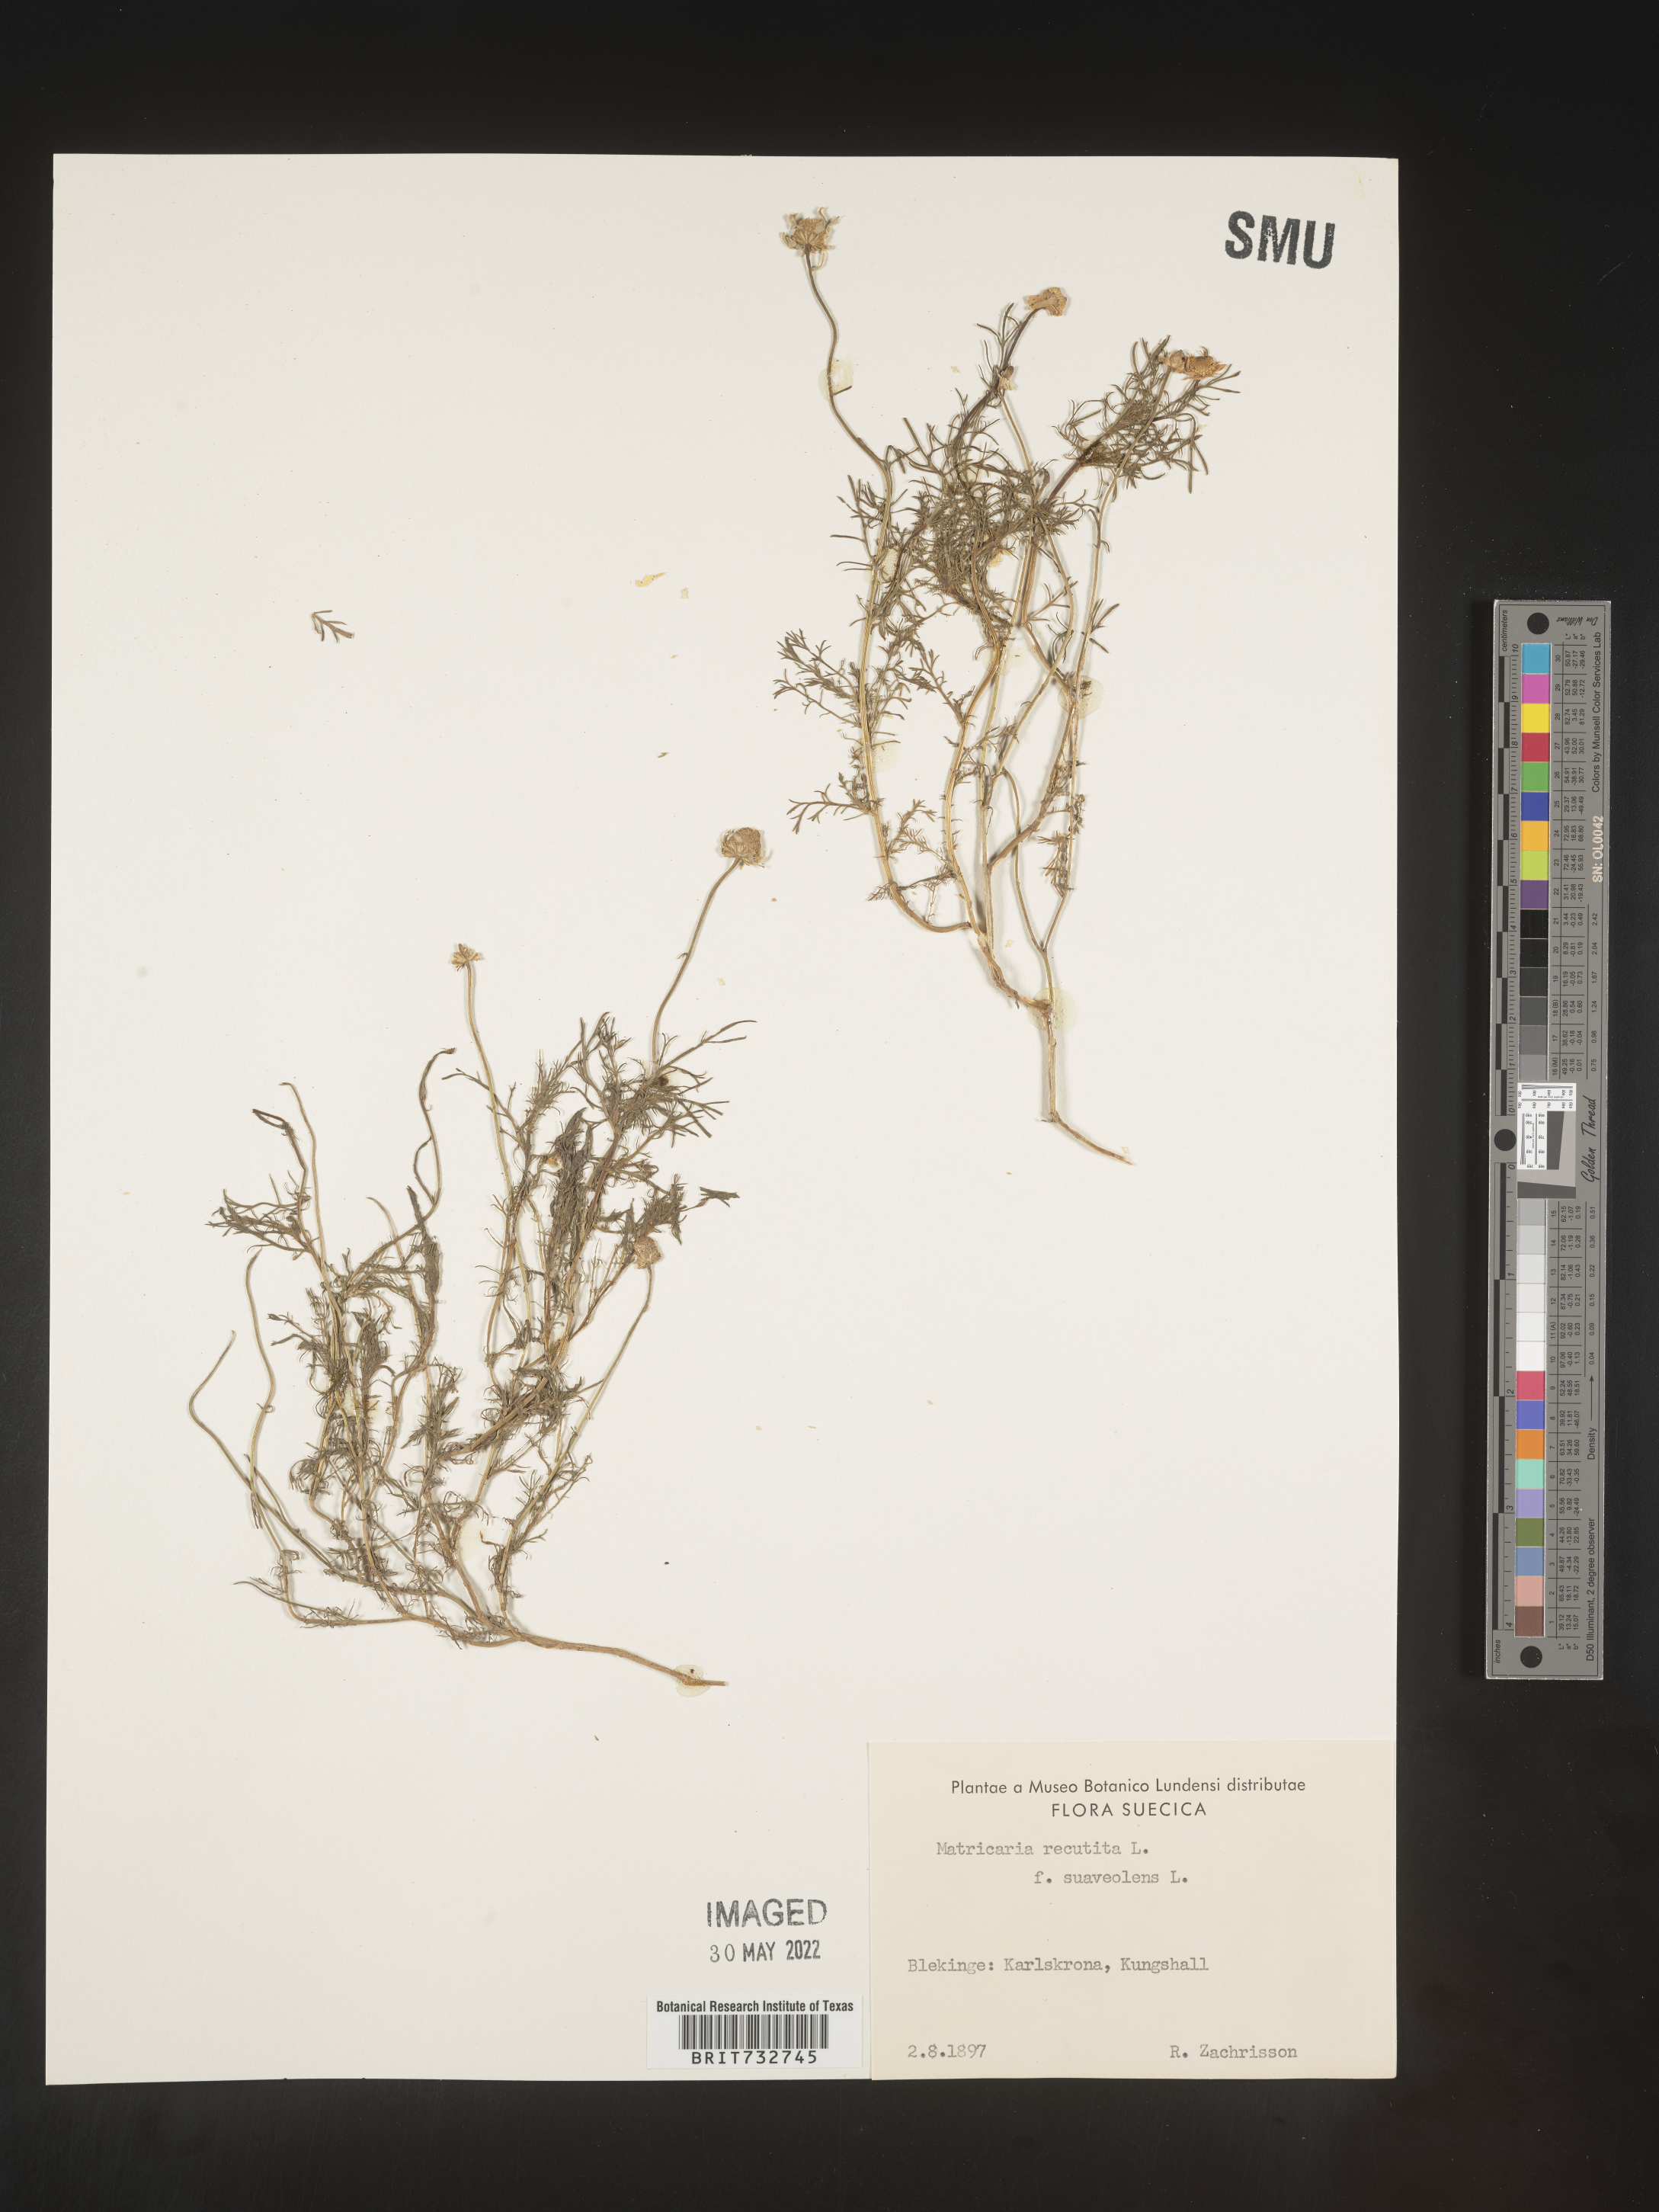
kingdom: Plantae
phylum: Tracheophyta
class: Magnoliopsida
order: Asterales
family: Asteraceae
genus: Matricaria
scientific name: Matricaria
